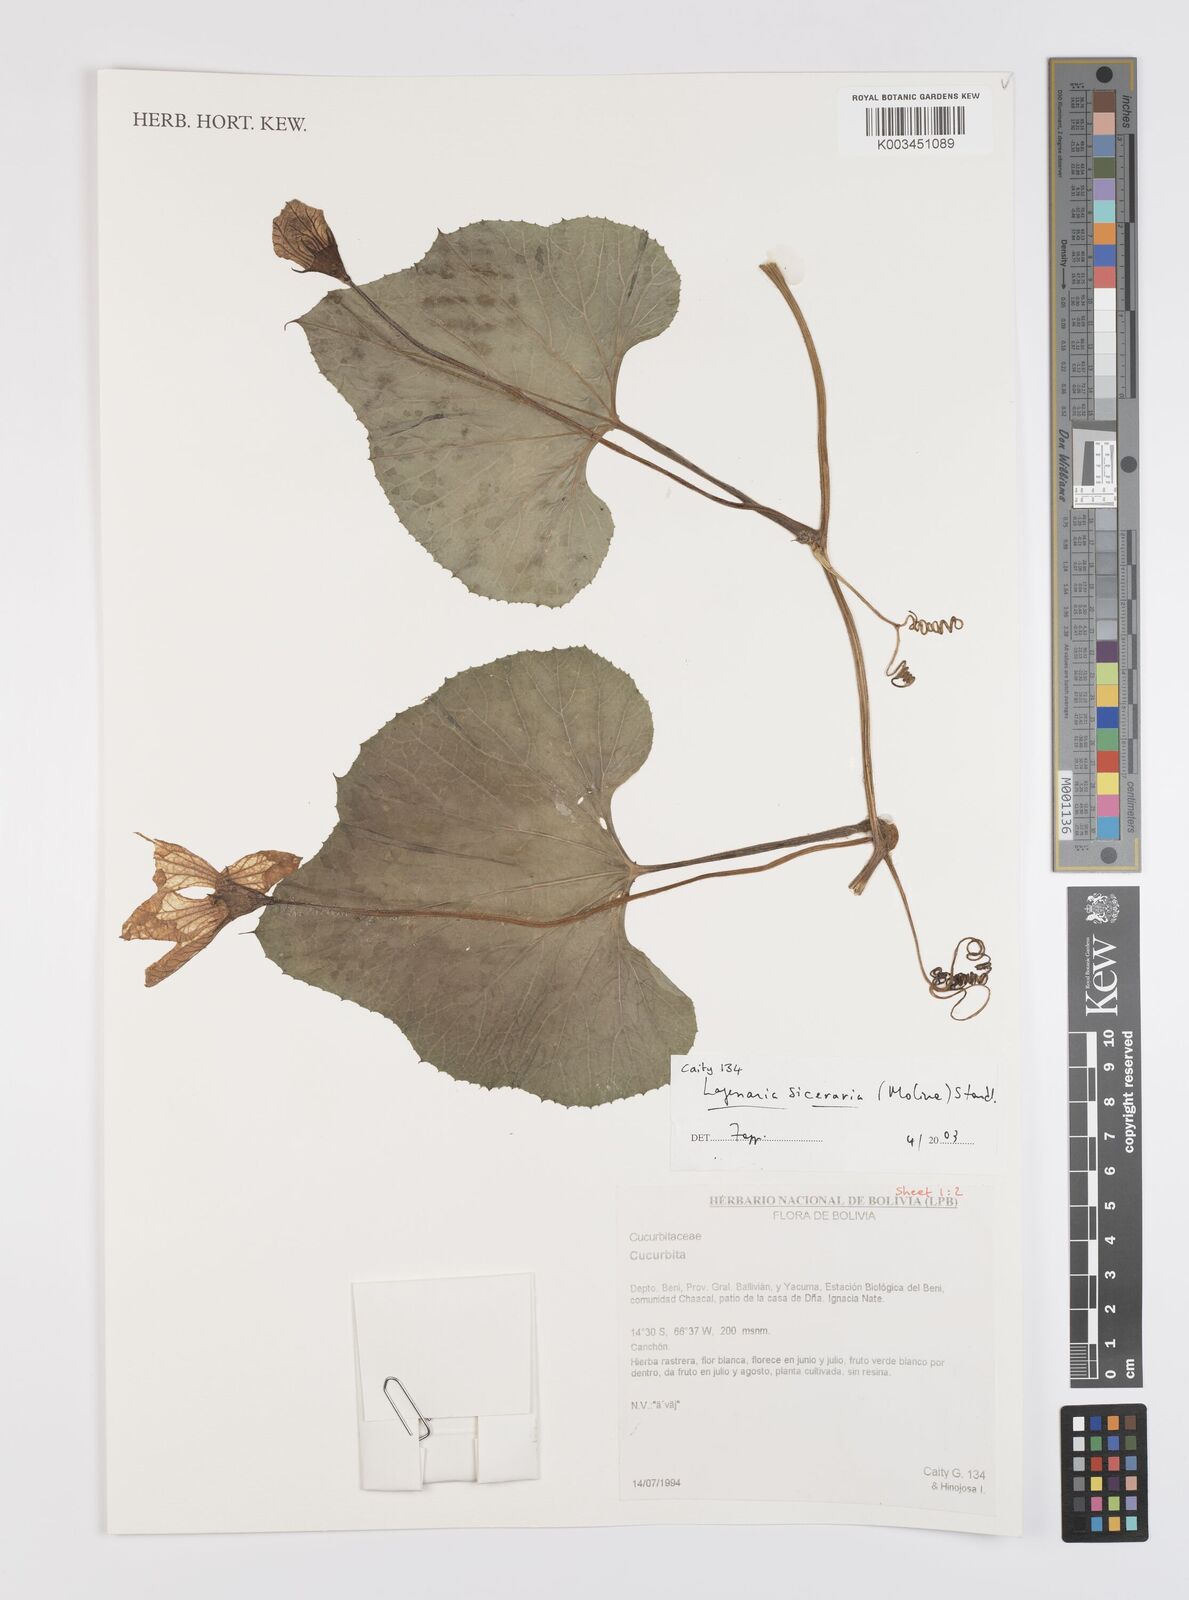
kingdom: Plantae
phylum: Tracheophyta
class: Magnoliopsida
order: Cucurbitales
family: Cucurbitaceae
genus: Lagenaria
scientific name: Lagenaria siceraria
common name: Bottle gourd
